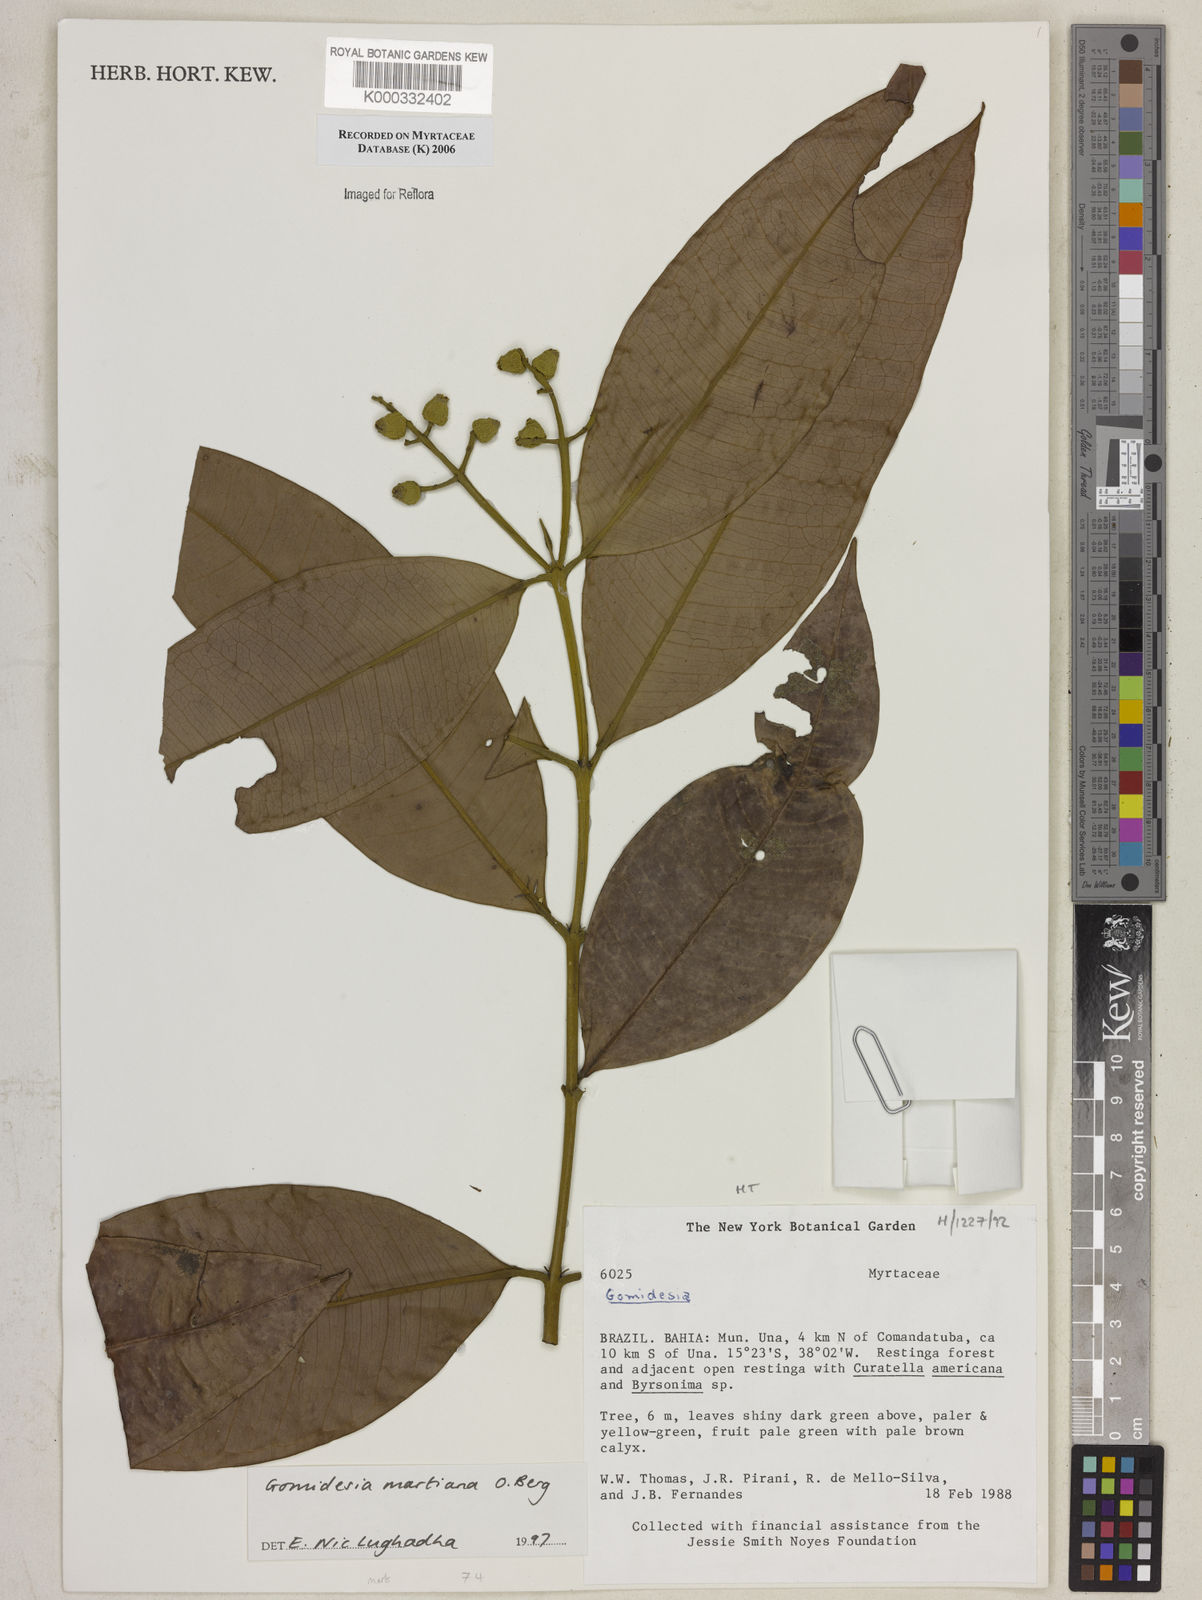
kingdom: Plantae
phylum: Tracheophyta
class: Magnoliopsida
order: Myrtales
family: Myrtaceae
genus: Myrcia
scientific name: Myrcia vittoriana
